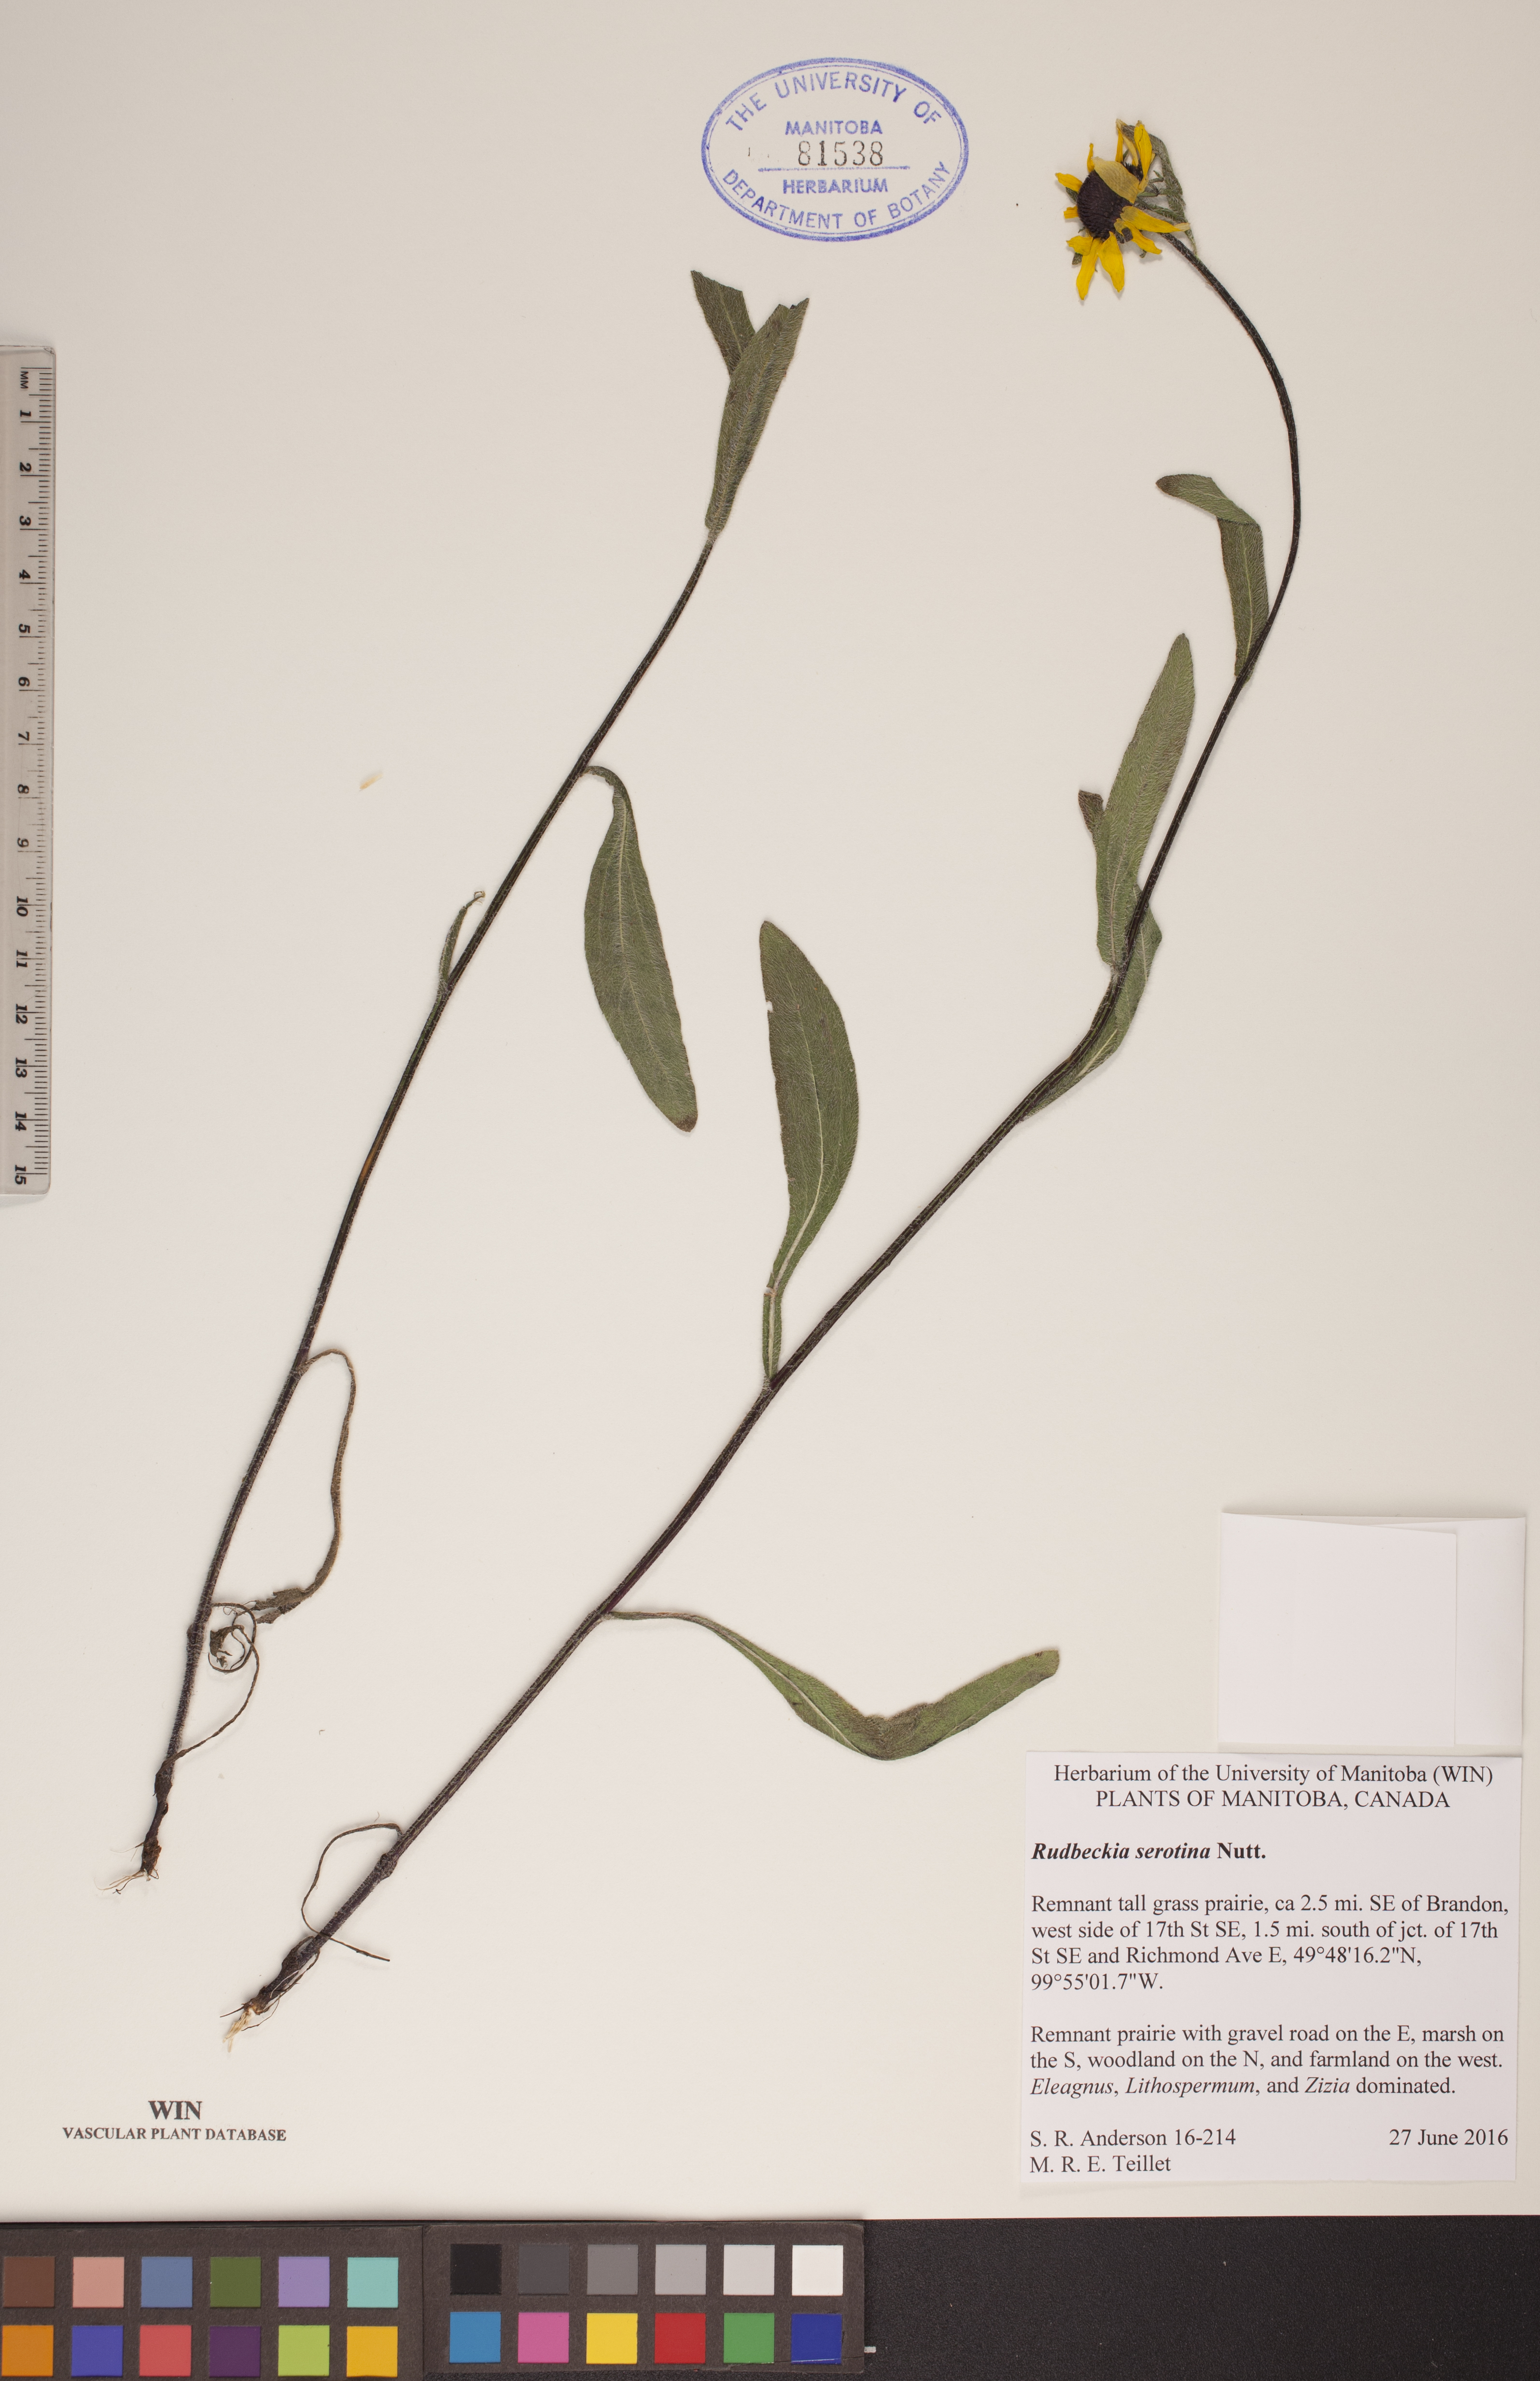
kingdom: Plantae
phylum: Tracheophyta
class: Magnoliopsida
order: Asterales
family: Asteraceae
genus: Echinacea
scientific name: Echinacea purpurea
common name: Broad-leaved purple coneflower
